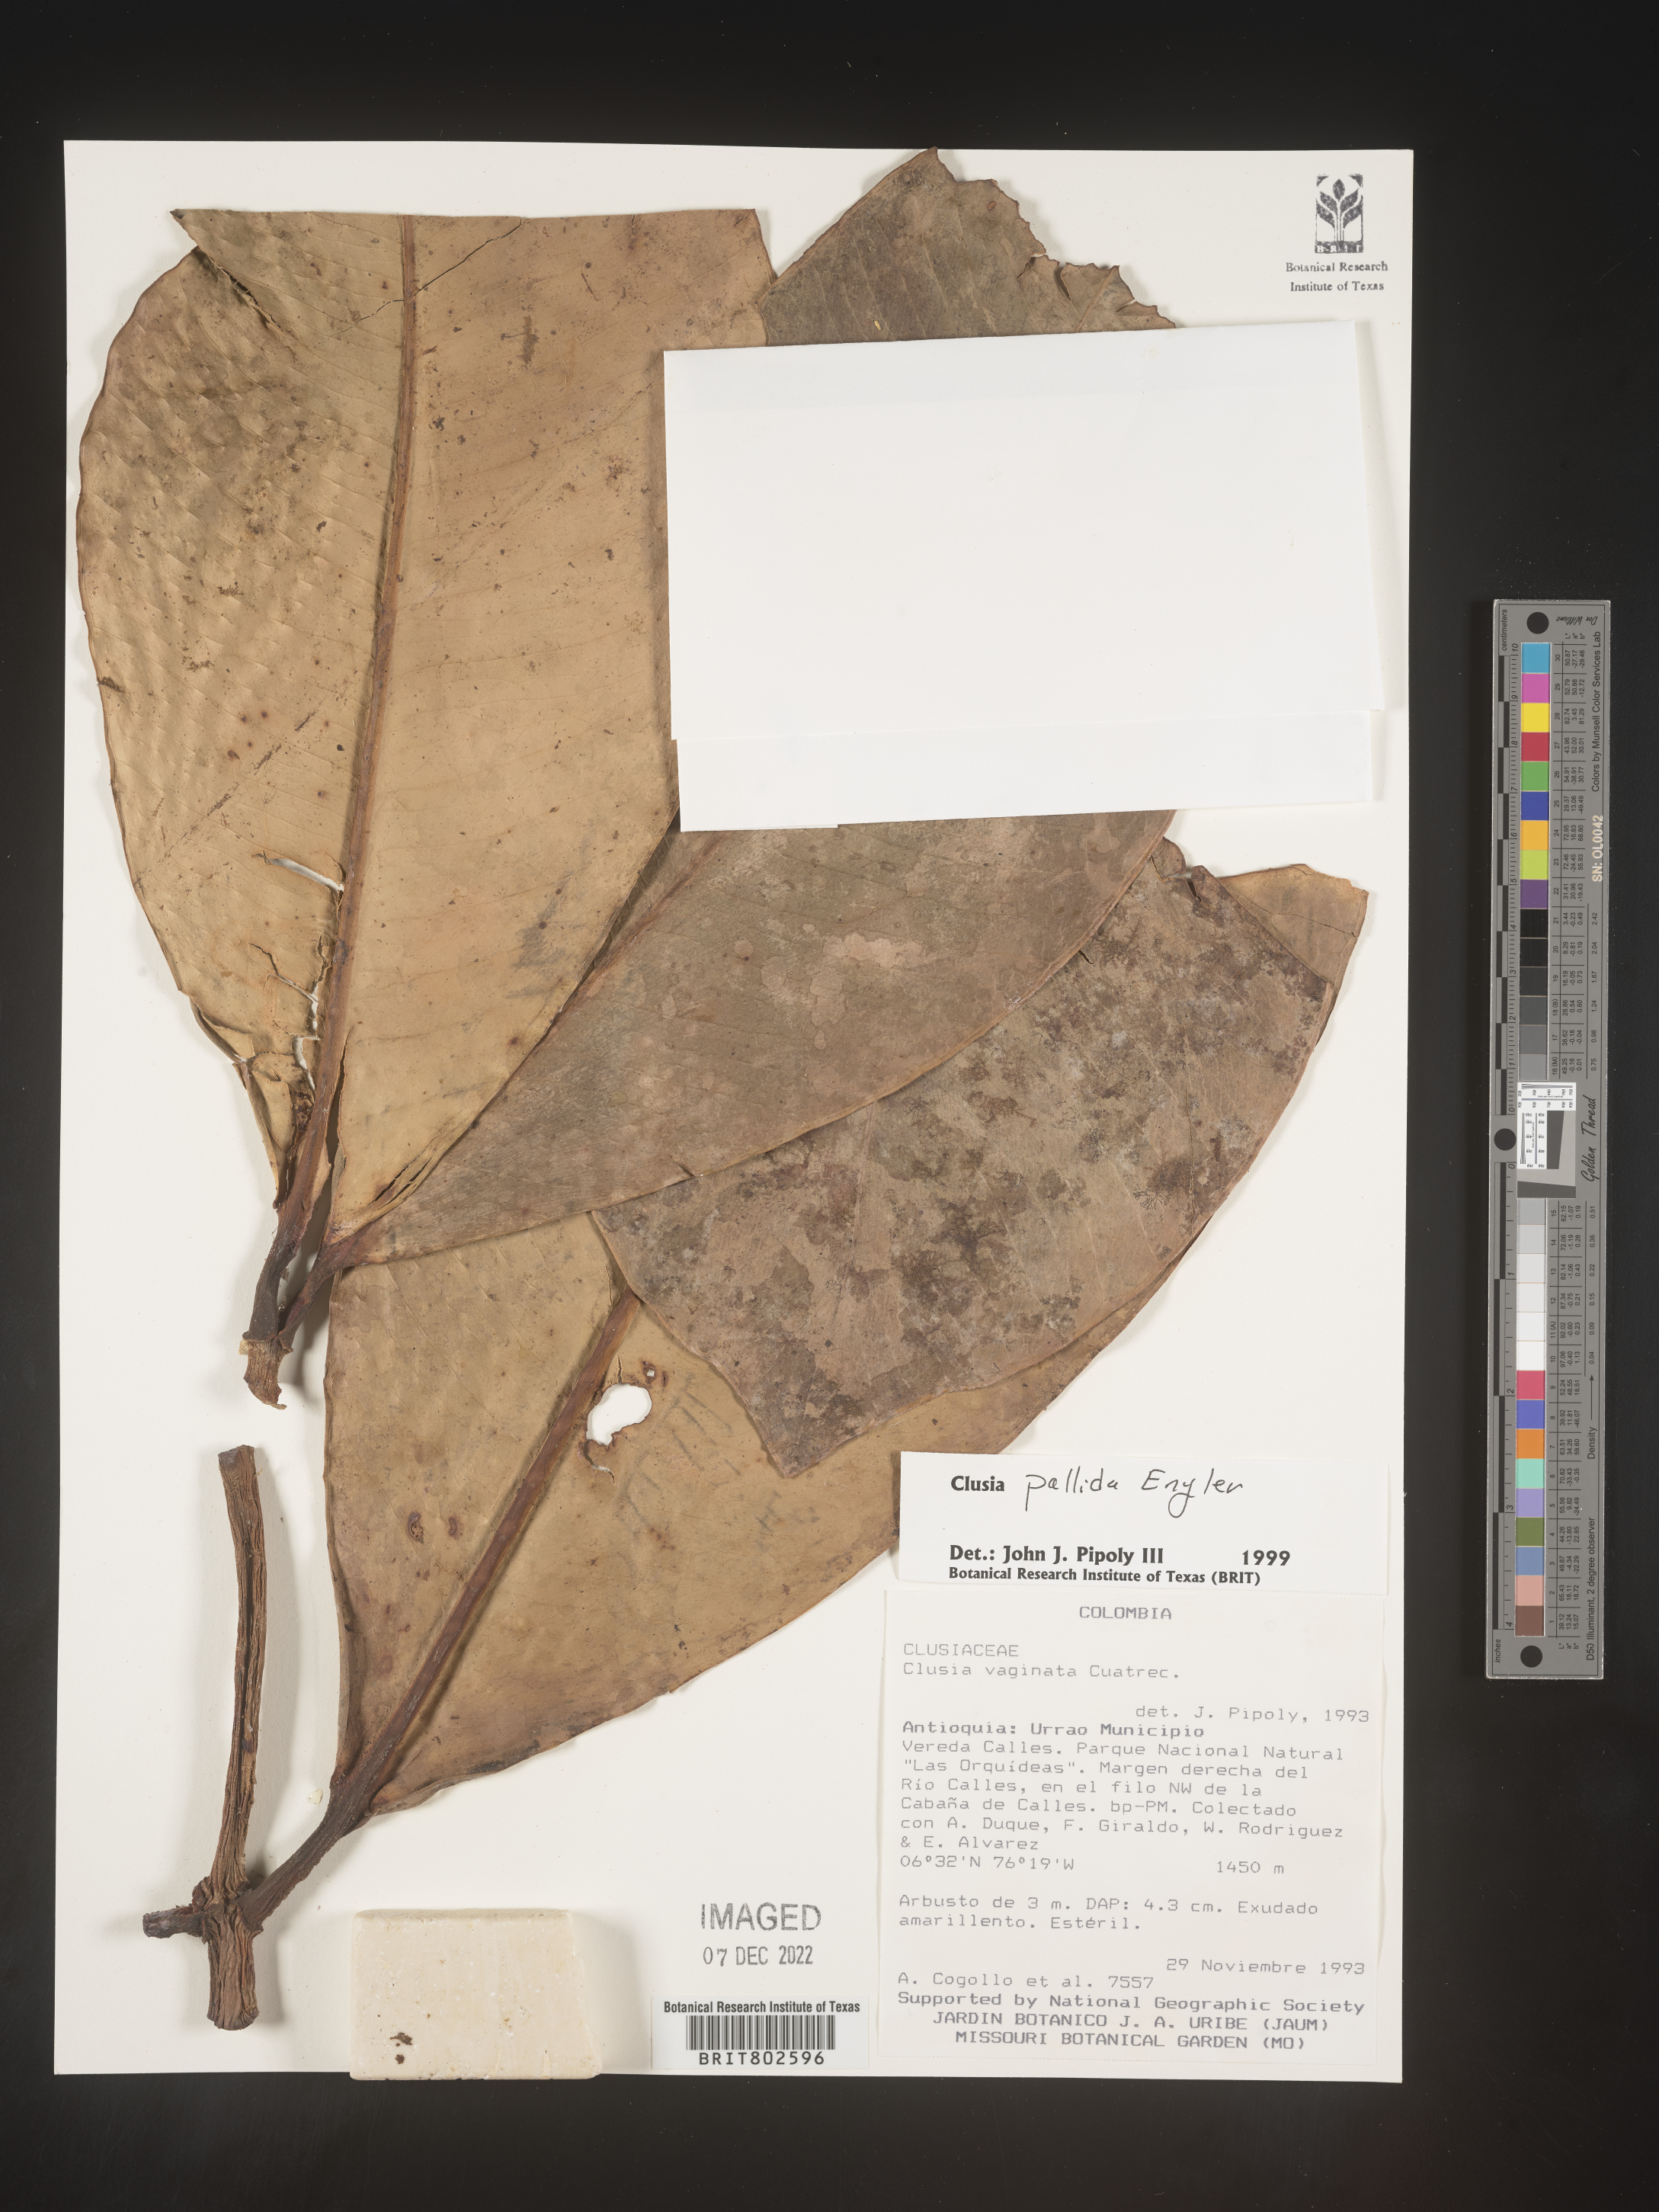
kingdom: Plantae
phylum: Tracheophyta
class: Magnoliopsida
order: Malpighiales
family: Clusiaceae
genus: Clusia
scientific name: Clusia pallida
